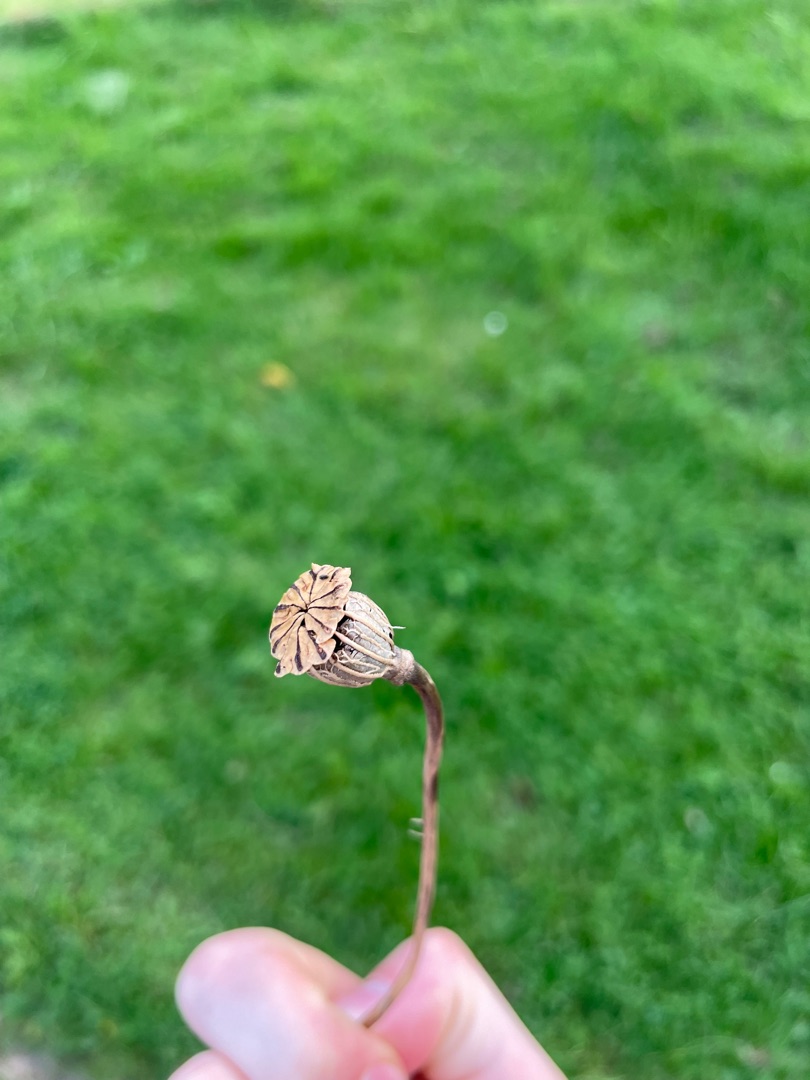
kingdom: Plantae
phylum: Tracheophyta
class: Magnoliopsida
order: Ranunculales
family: Papaveraceae
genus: Papaver
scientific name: Papaver rhoeas
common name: Korn-valmue
